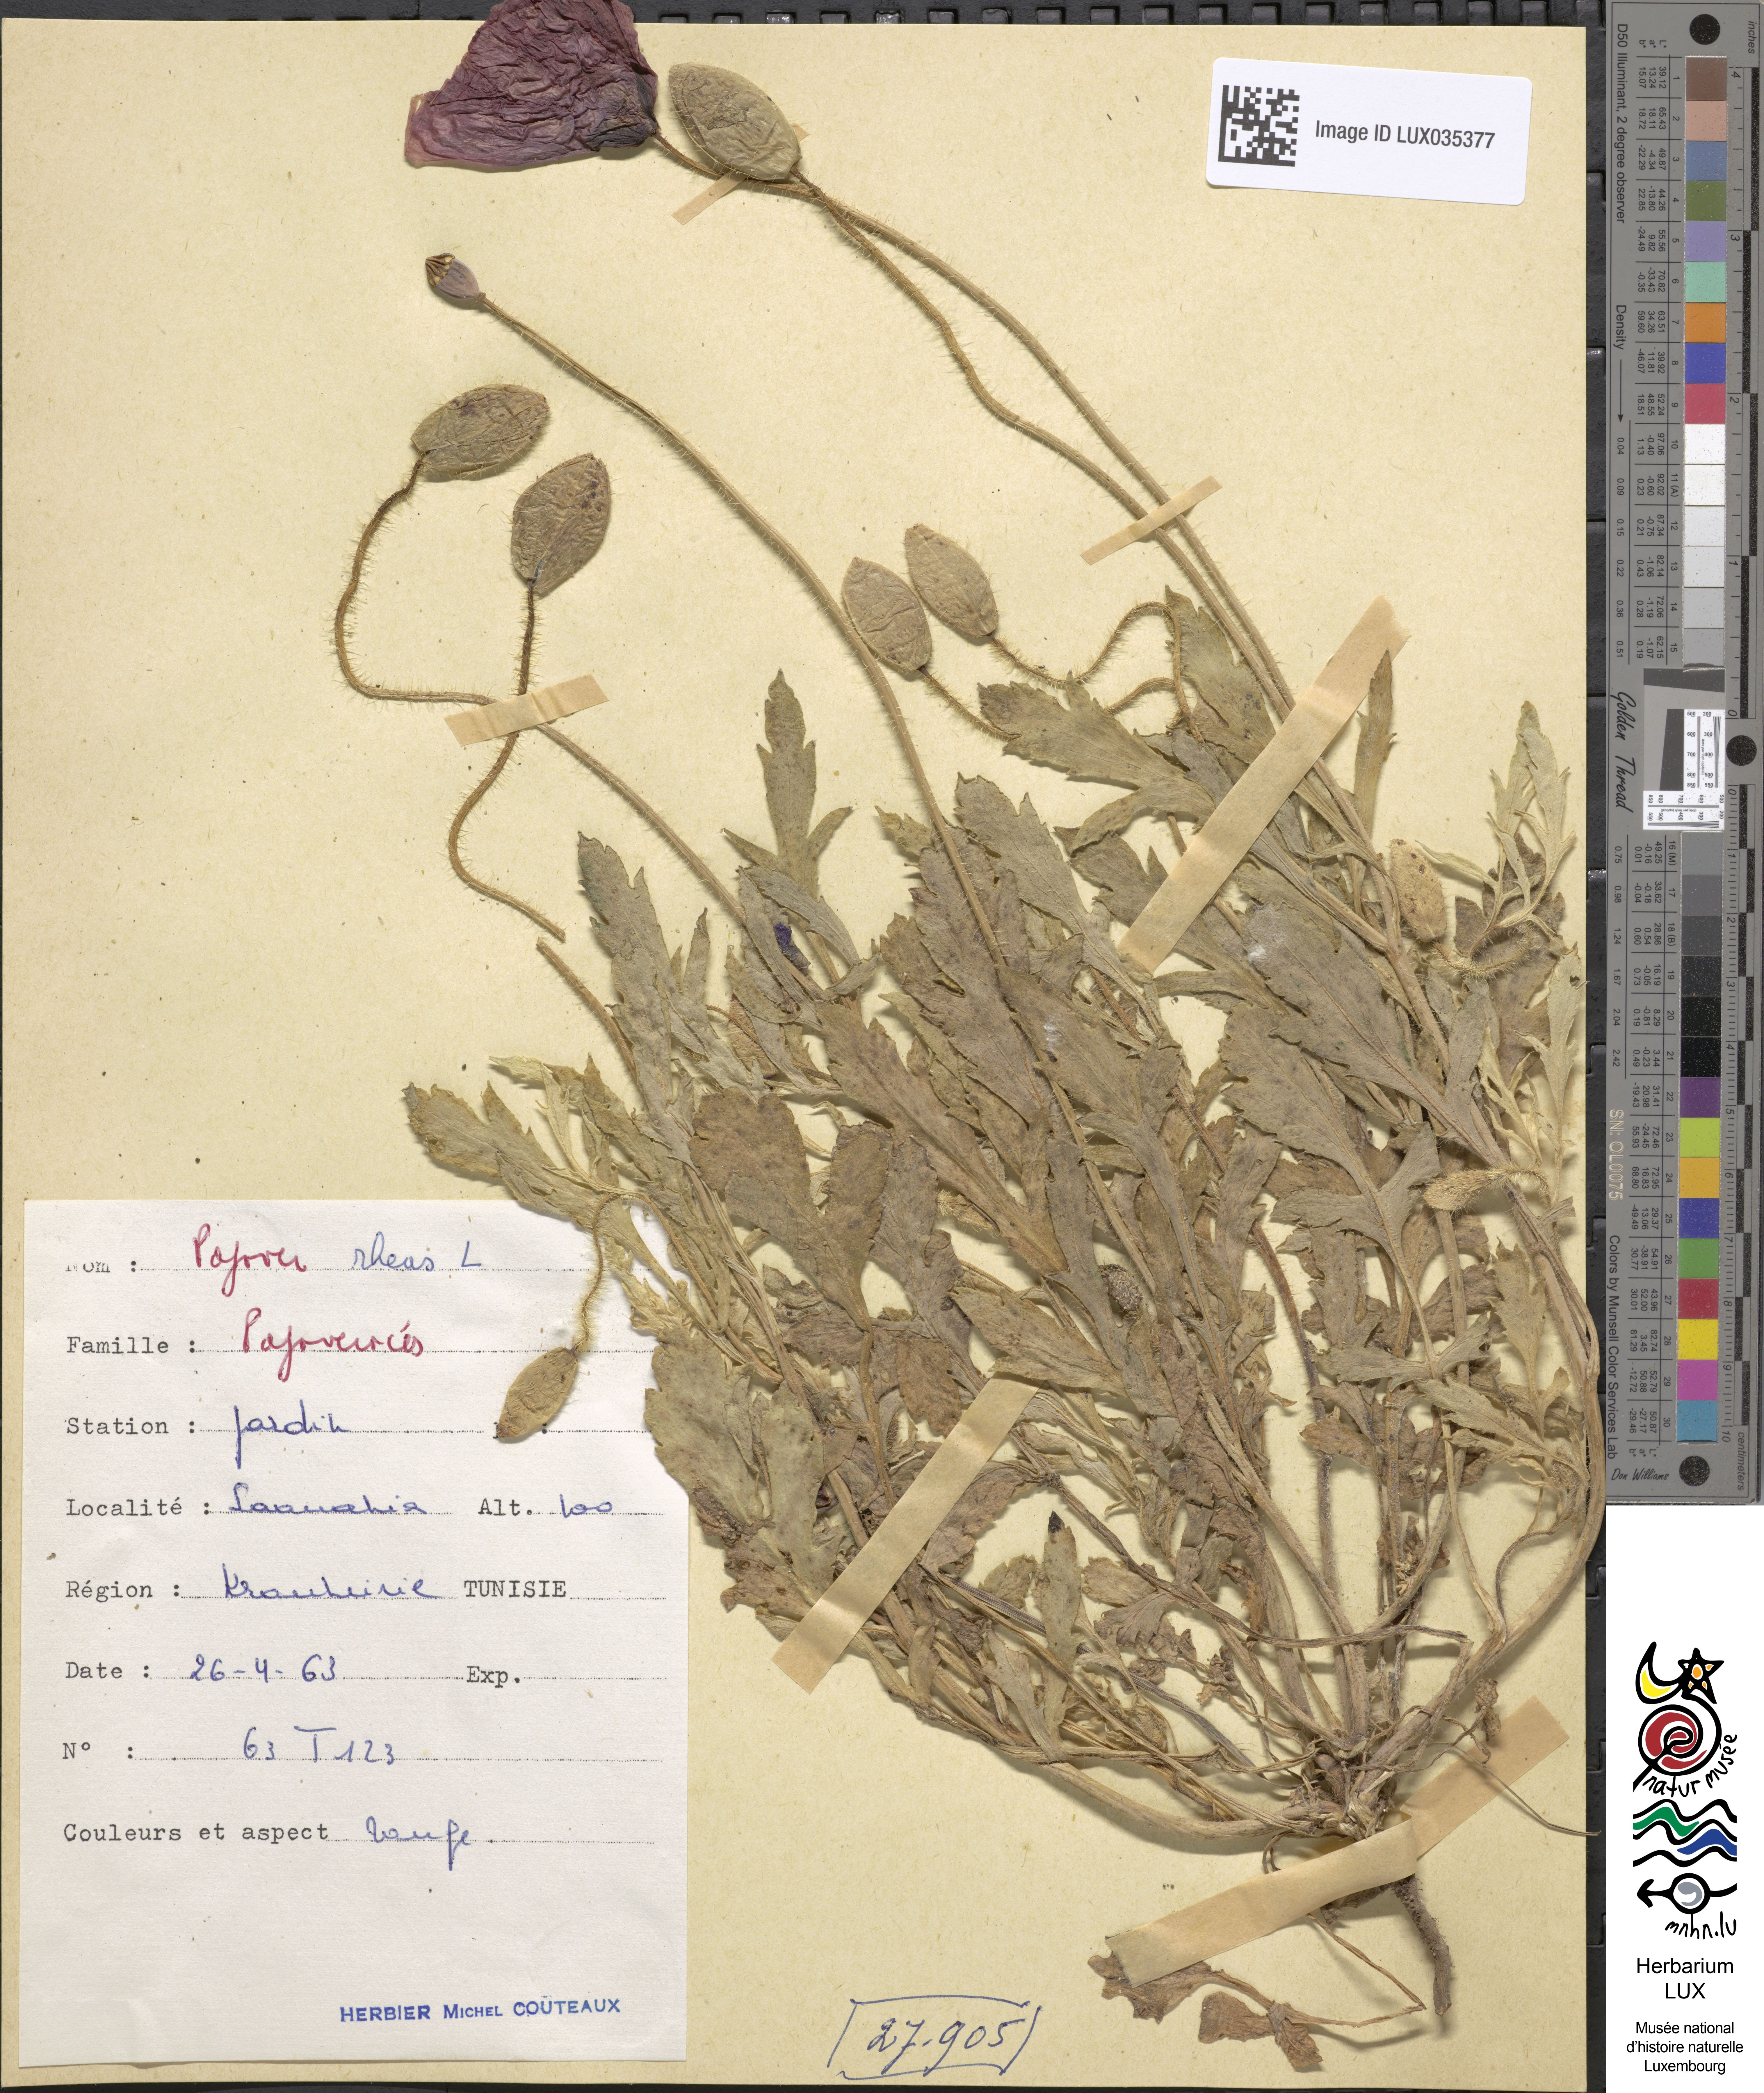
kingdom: Plantae
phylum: Tracheophyta
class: Magnoliopsida
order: Ranunculales
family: Papaveraceae
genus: Papaver
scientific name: Papaver rhoeas
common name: Corn poppy
